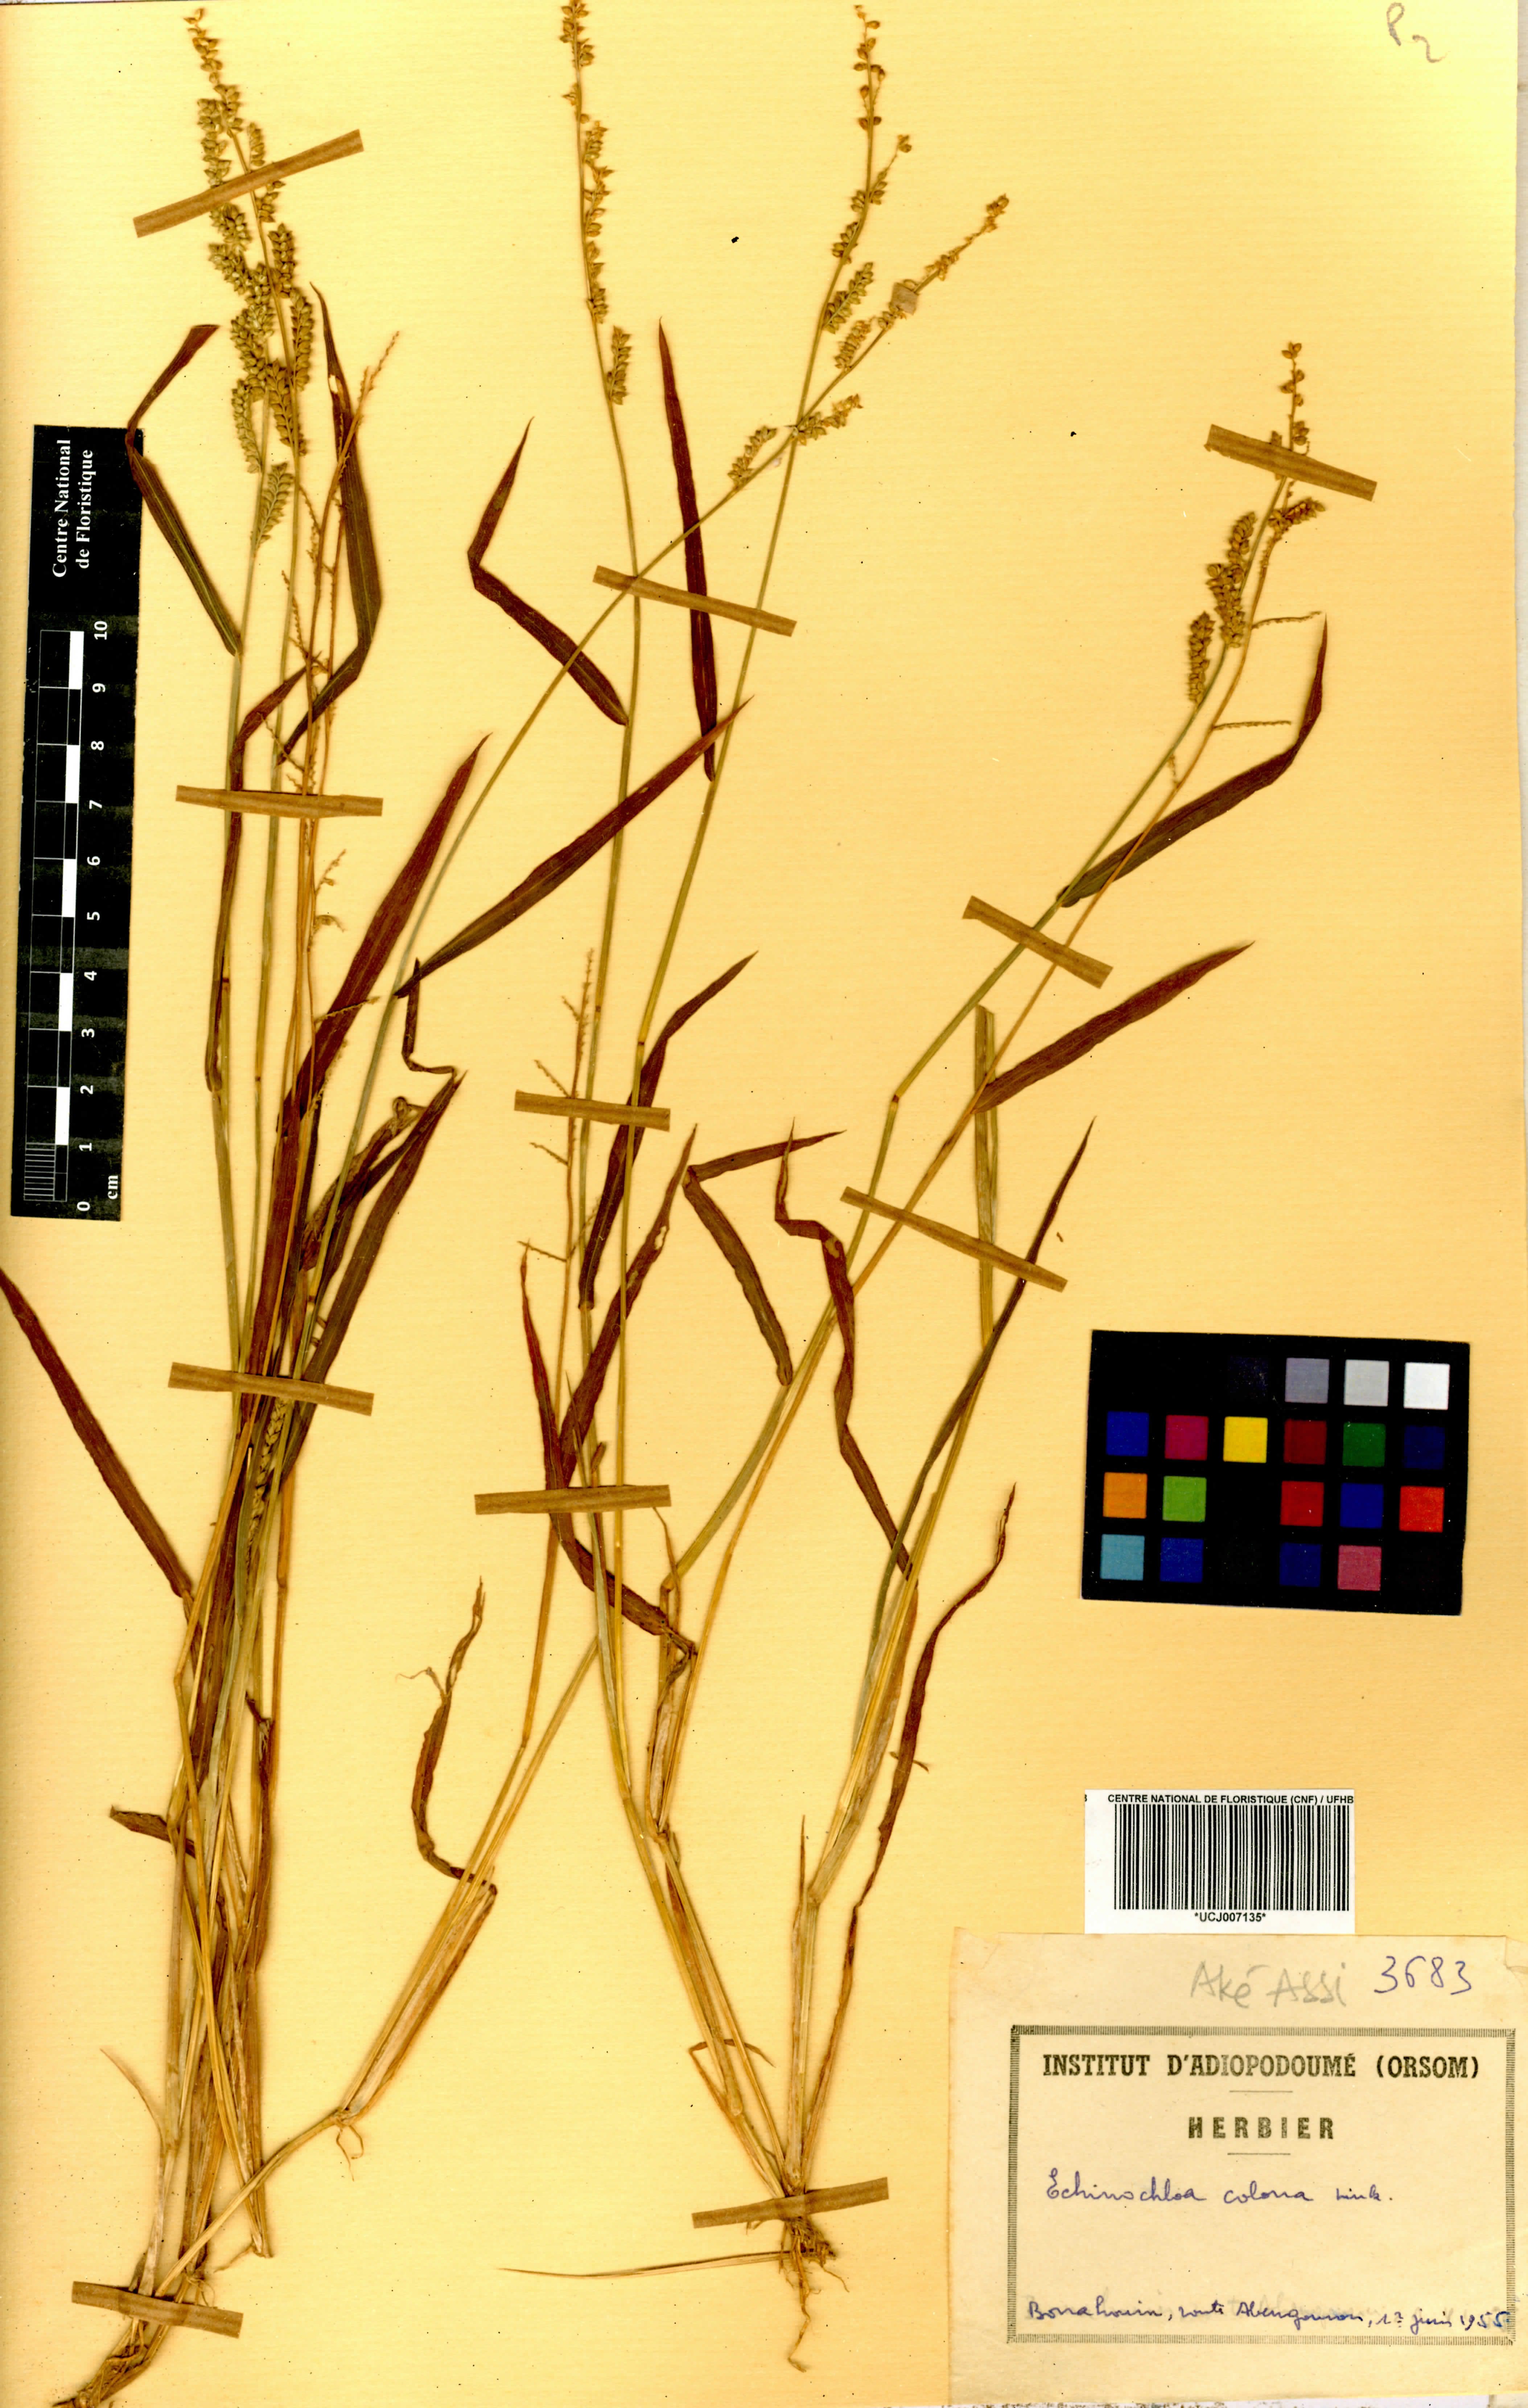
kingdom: Plantae
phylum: Tracheophyta
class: Liliopsida
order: Poales
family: Poaceae
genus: Echinochloa
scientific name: Echinochloa colonum
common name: Jungle rice
